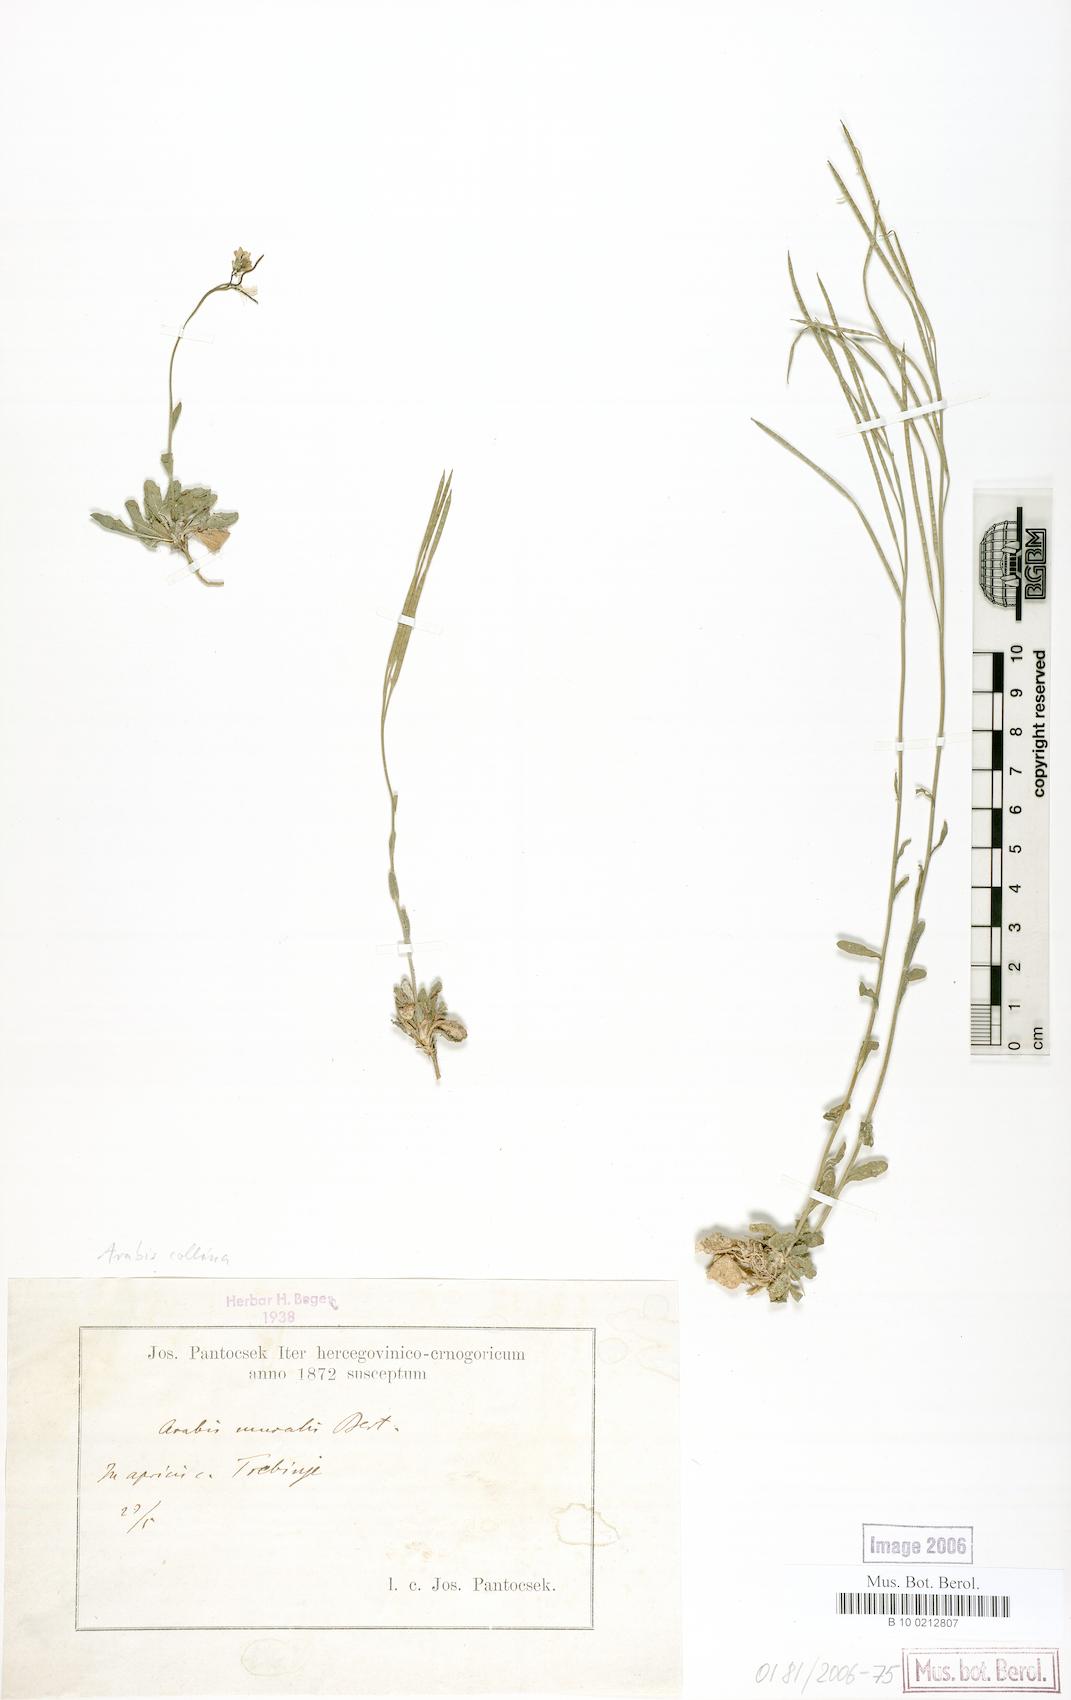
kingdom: Plantae
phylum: Tracheophyta
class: Magnoliopsida
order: Brassicales
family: Brassicaceae
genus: Arabis
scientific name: Arabis collina
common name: Rosy cress
